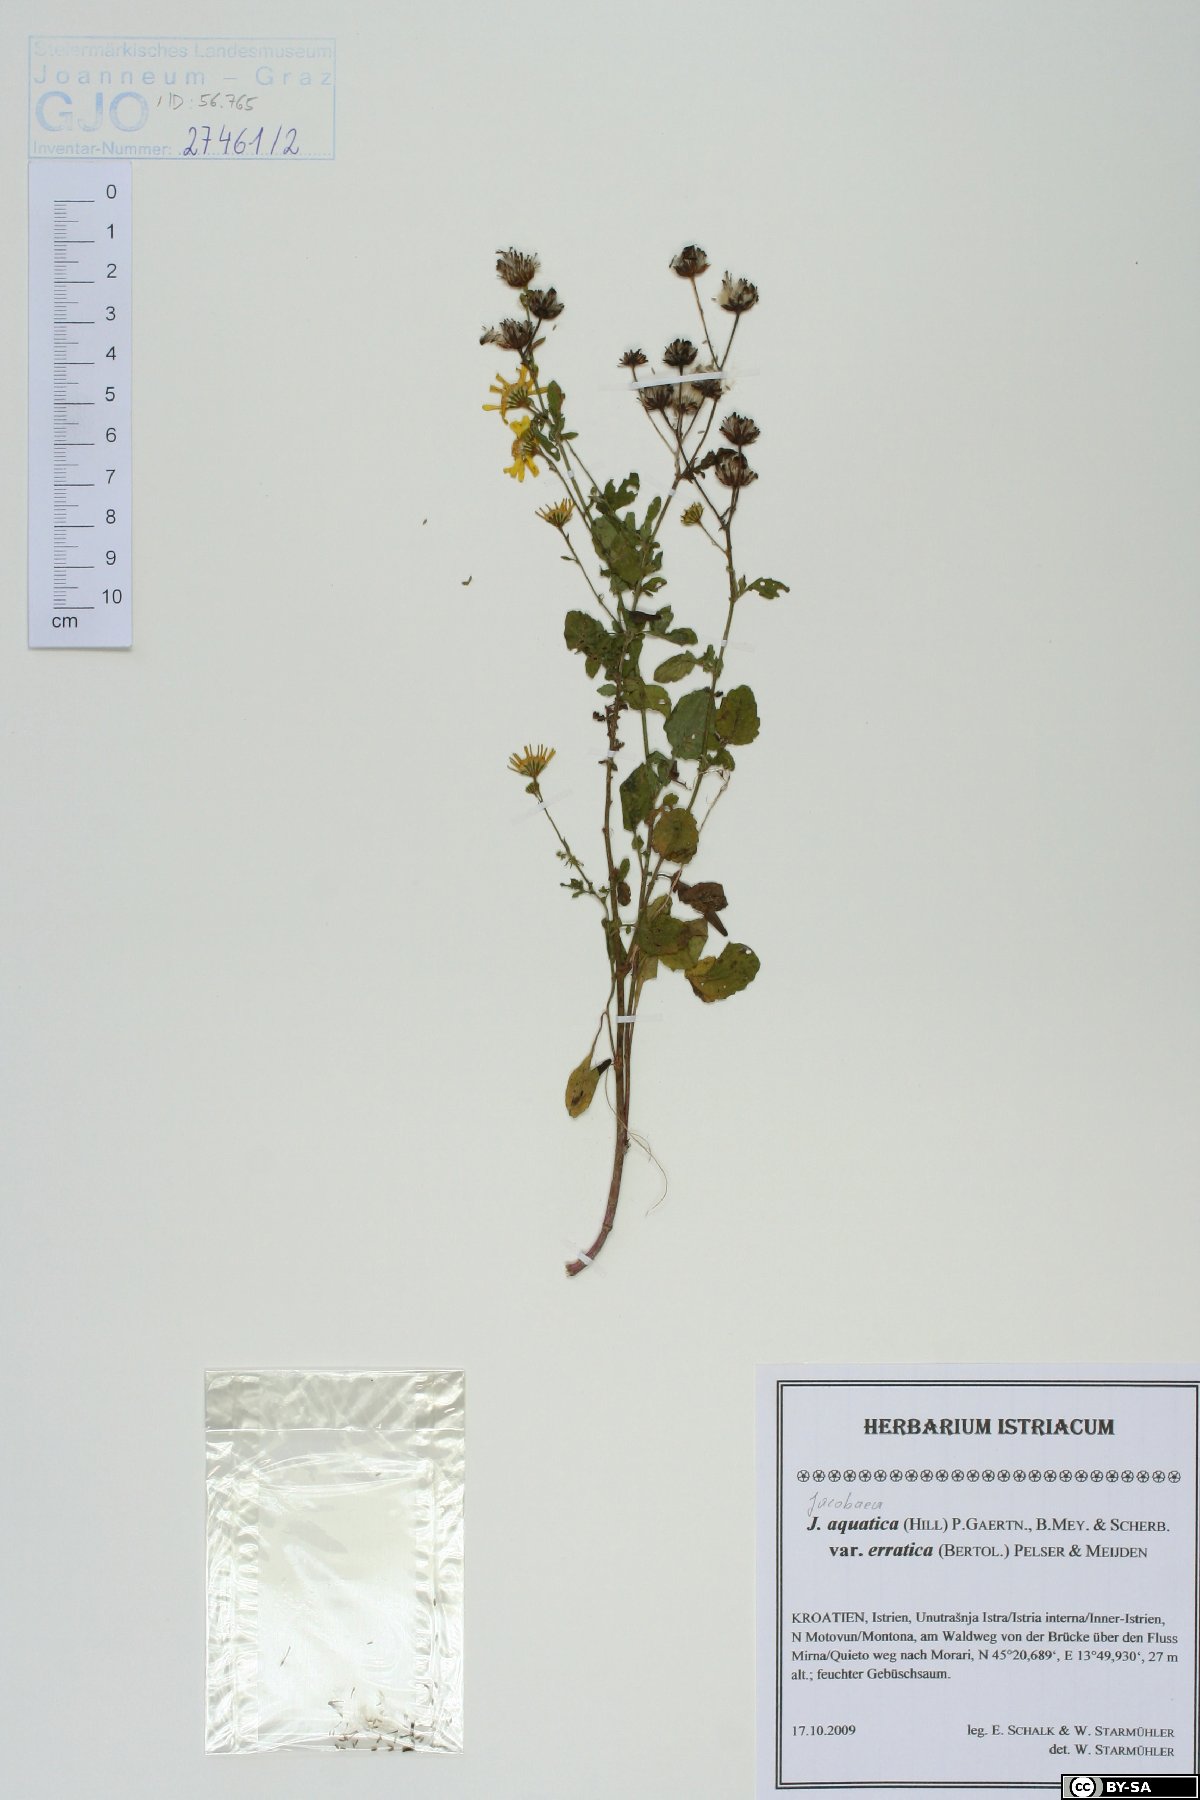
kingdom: Plantae
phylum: Tracheophyta
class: Magnoliopsida
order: Asterales
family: Asteraceae
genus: Jacobaea
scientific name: Jacobaea erratica
